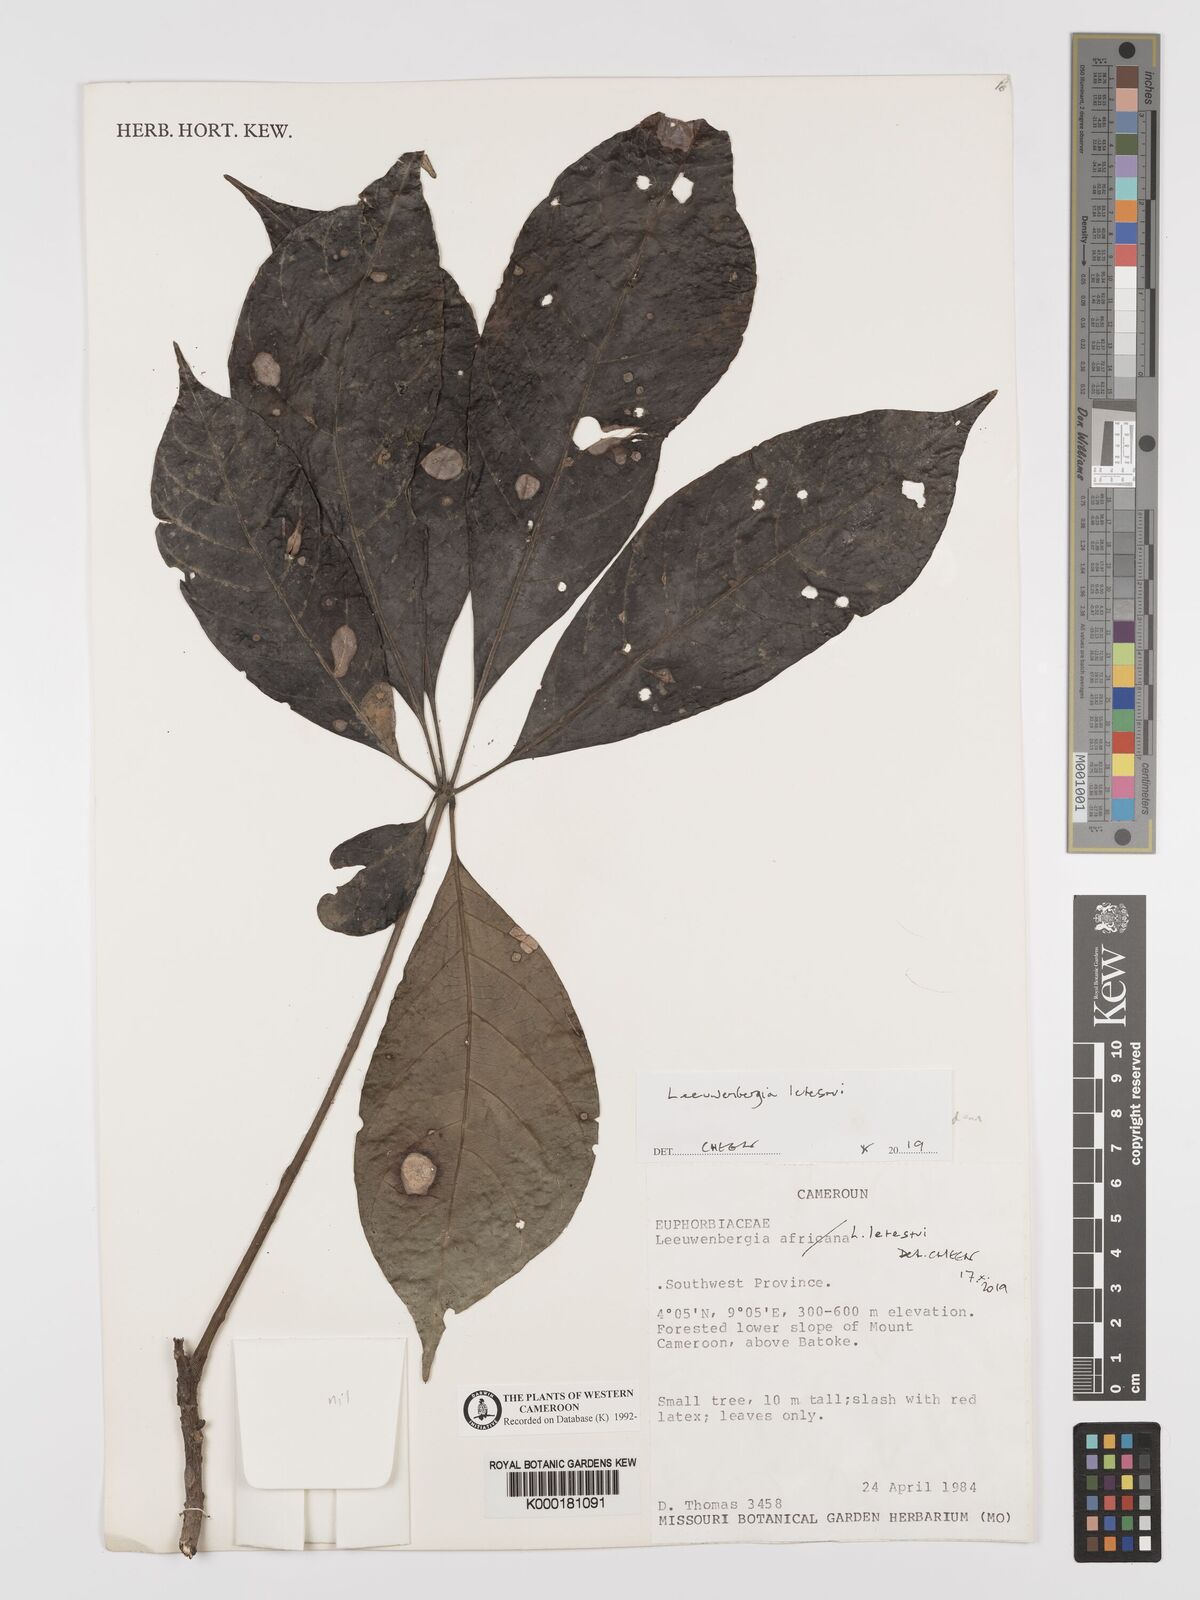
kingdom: Plantae
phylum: Tracheophyta
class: Magnoliopsida
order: Malpighiales
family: Euphorbiaceae
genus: Leeuwenbergia
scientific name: Leeuwenbergia
